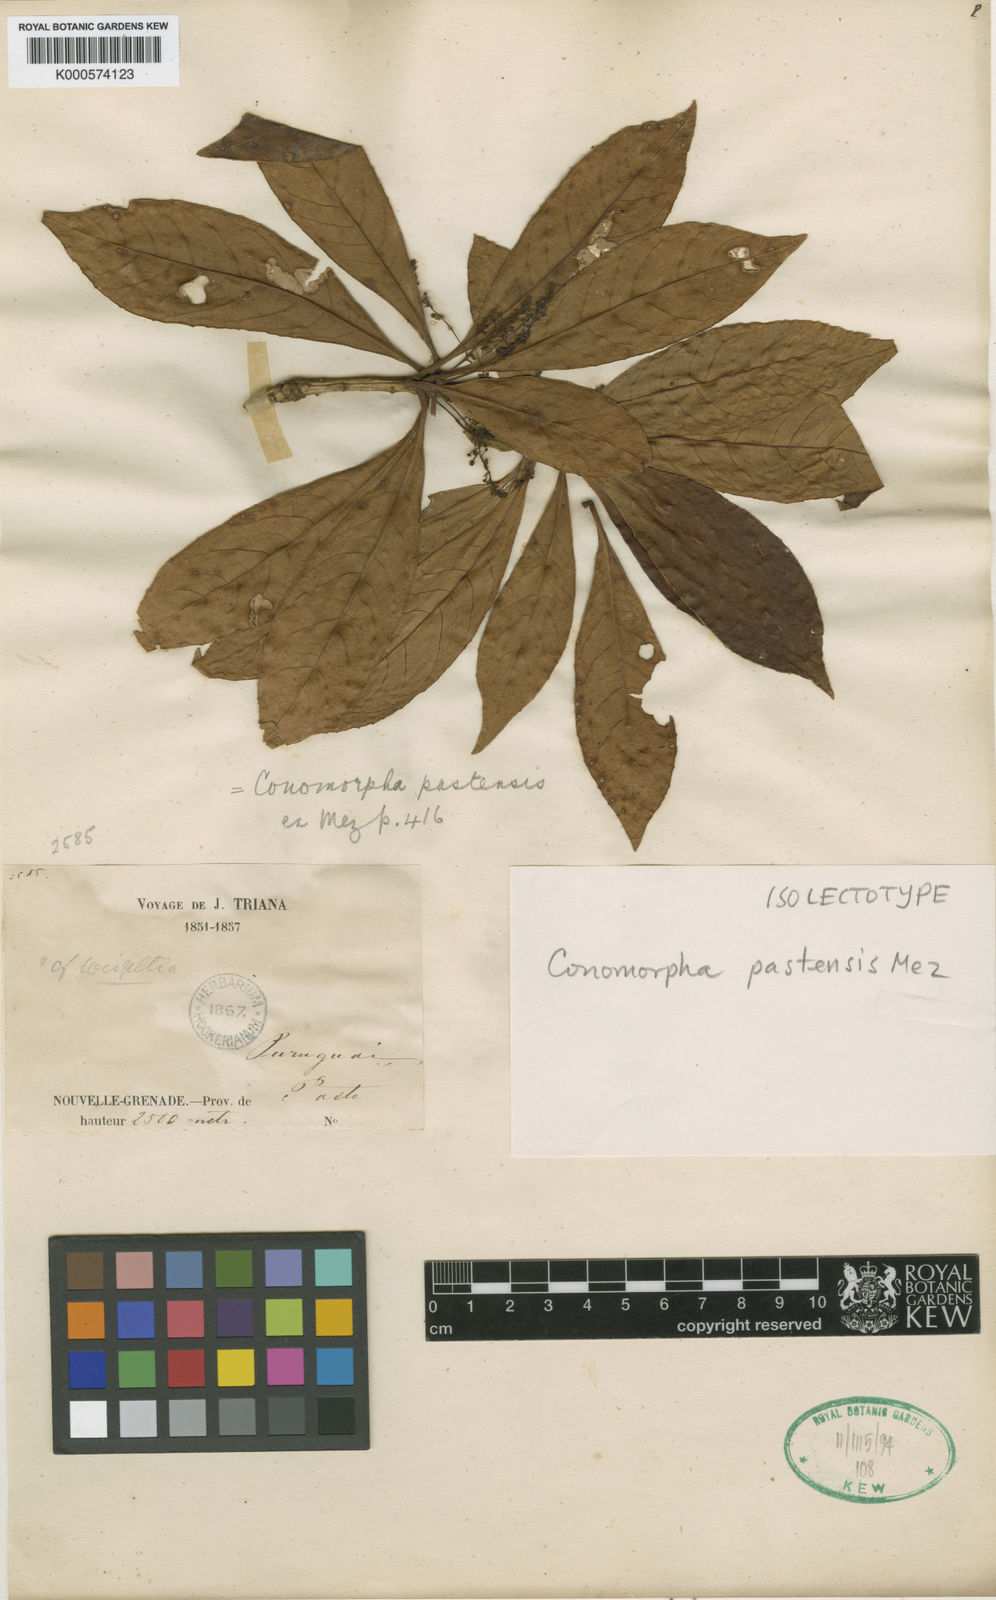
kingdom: Plantae
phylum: Tracheophyta
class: Magnoliopsida
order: Ericales
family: Primulaceae
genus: Cybianthus
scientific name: Cybianthus pastensis
